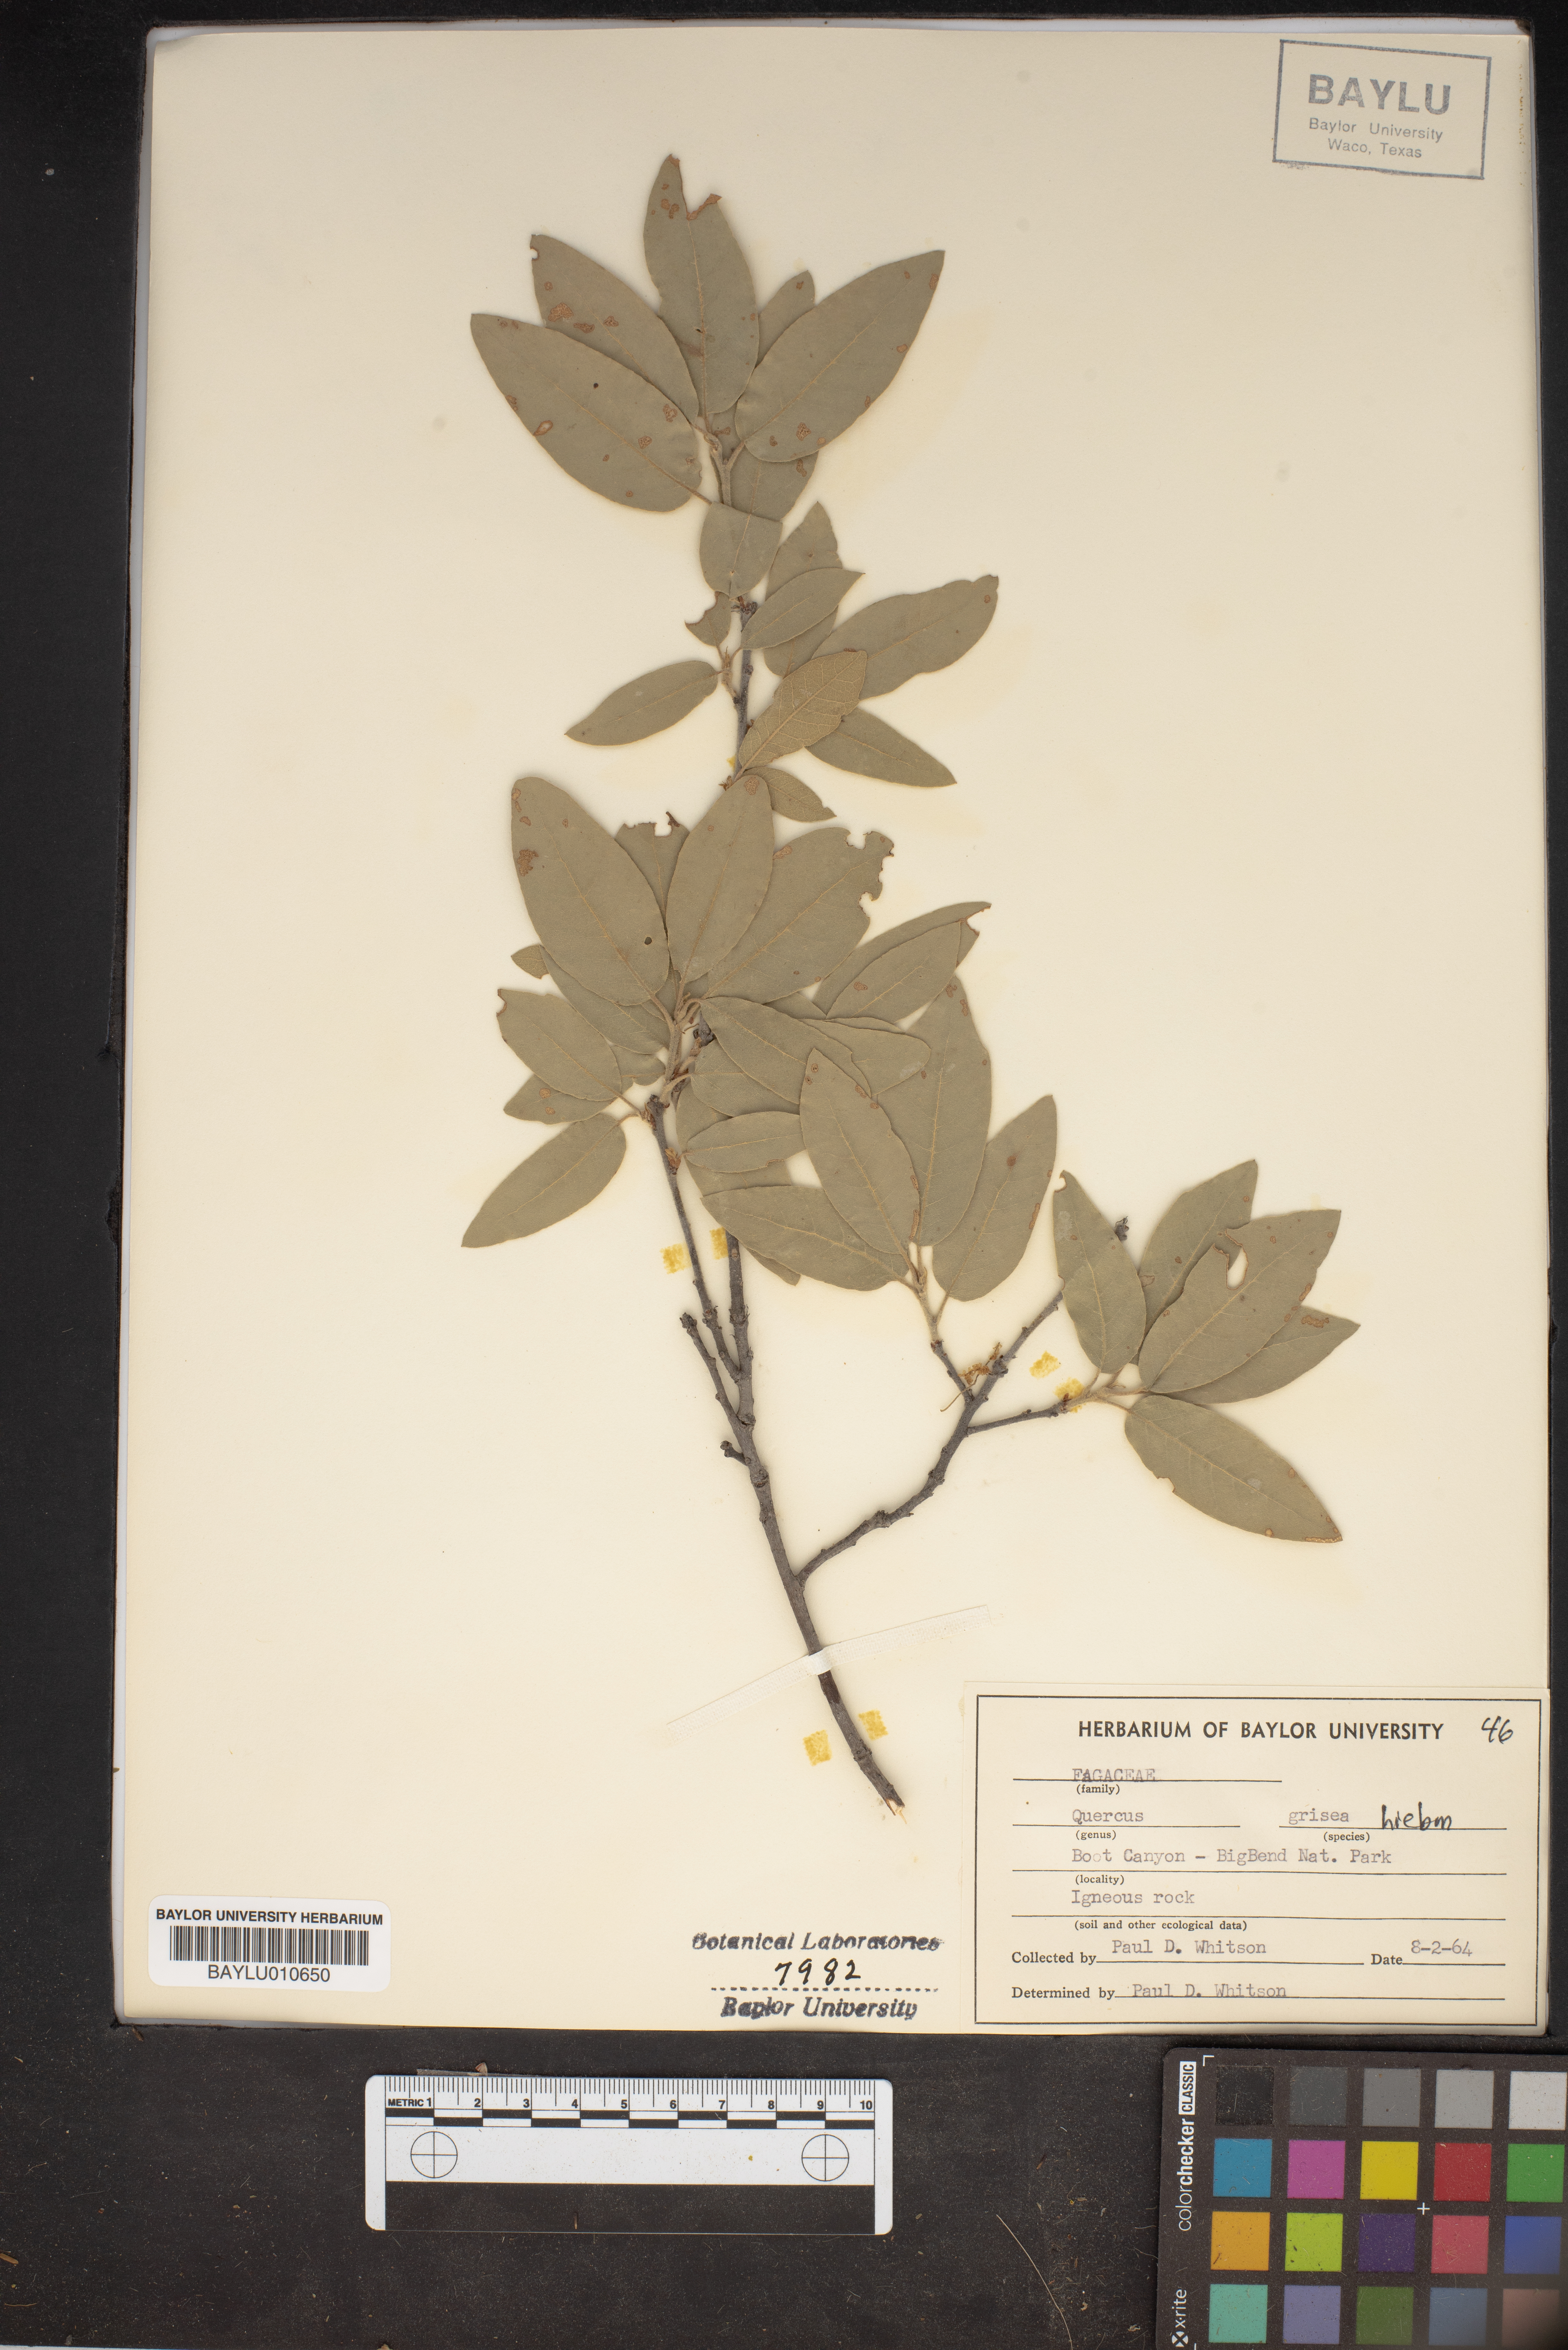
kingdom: Plantae
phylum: Tracheophyta
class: Magnoliopsida
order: Fagales
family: Fagaceae
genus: Quercus
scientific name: Quercus grisea
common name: Gray oak
